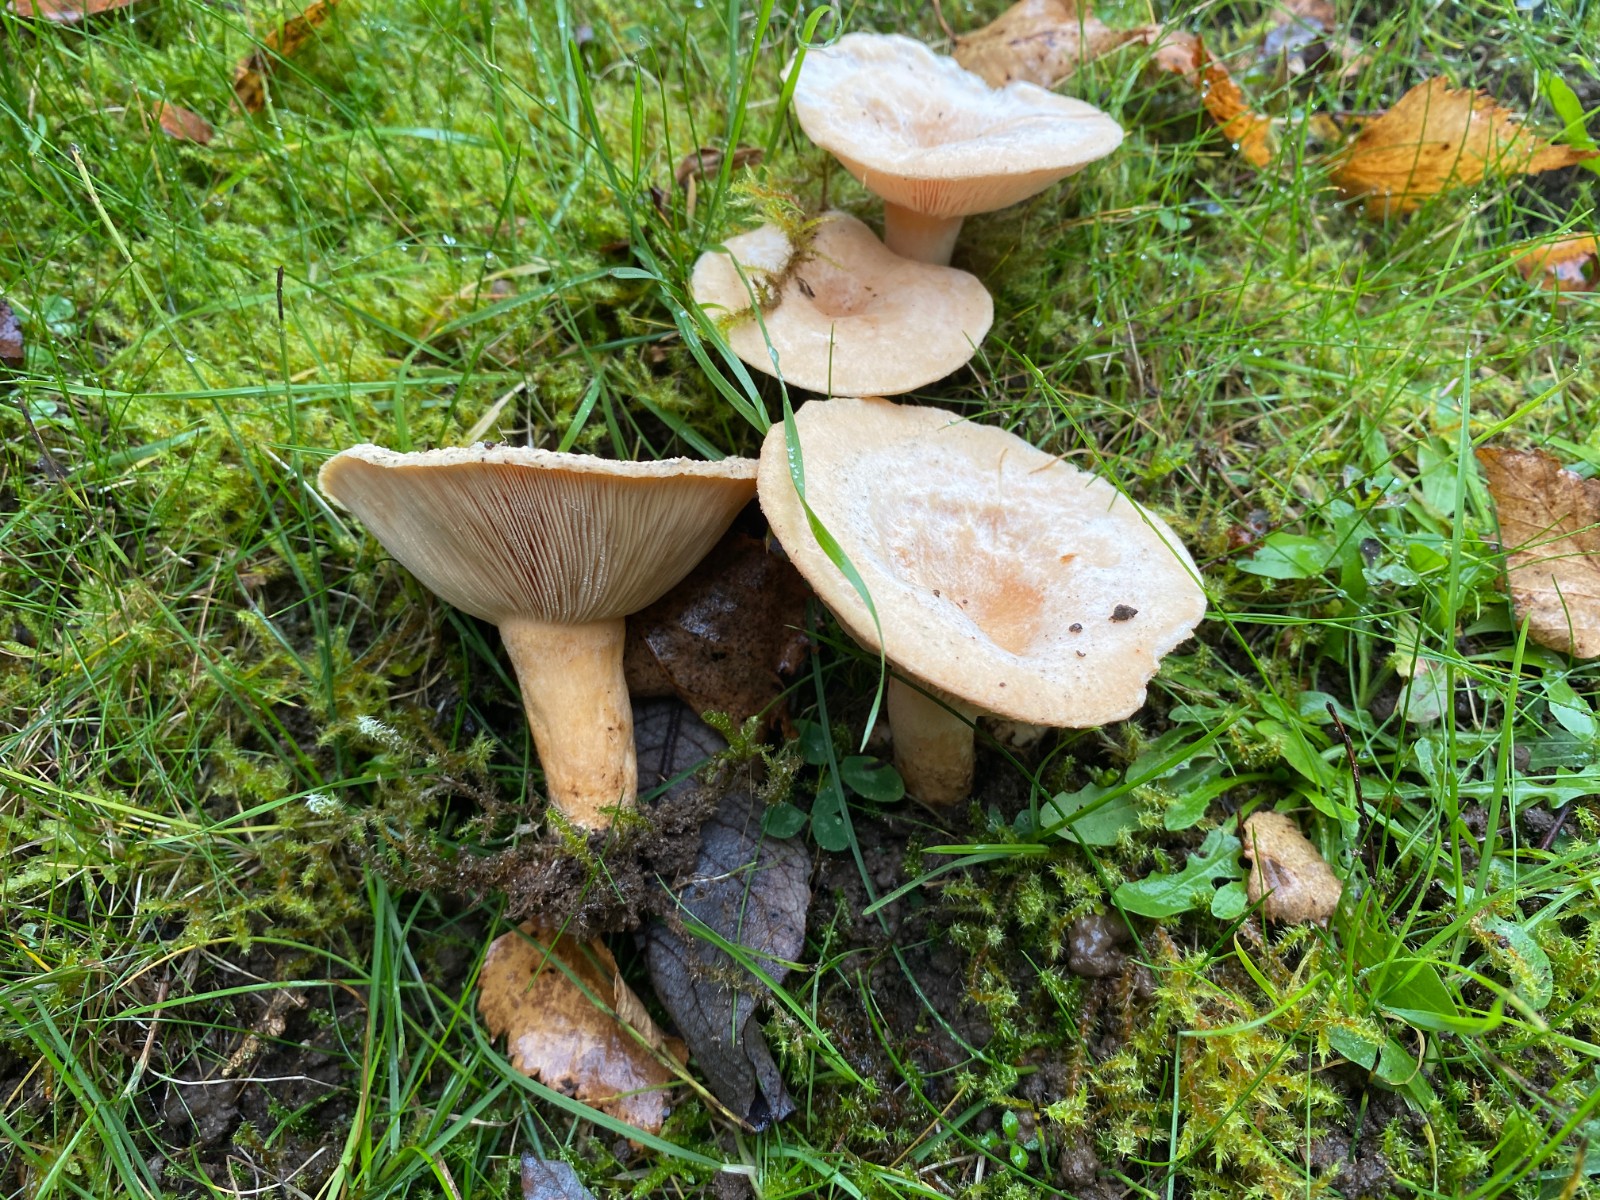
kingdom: Fungi
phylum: Basidiomycota
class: Agaricomycetes
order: Russulales
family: Russulaceae
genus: Lactarius
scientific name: Lactarius pubescens
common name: dunet mælkehat
